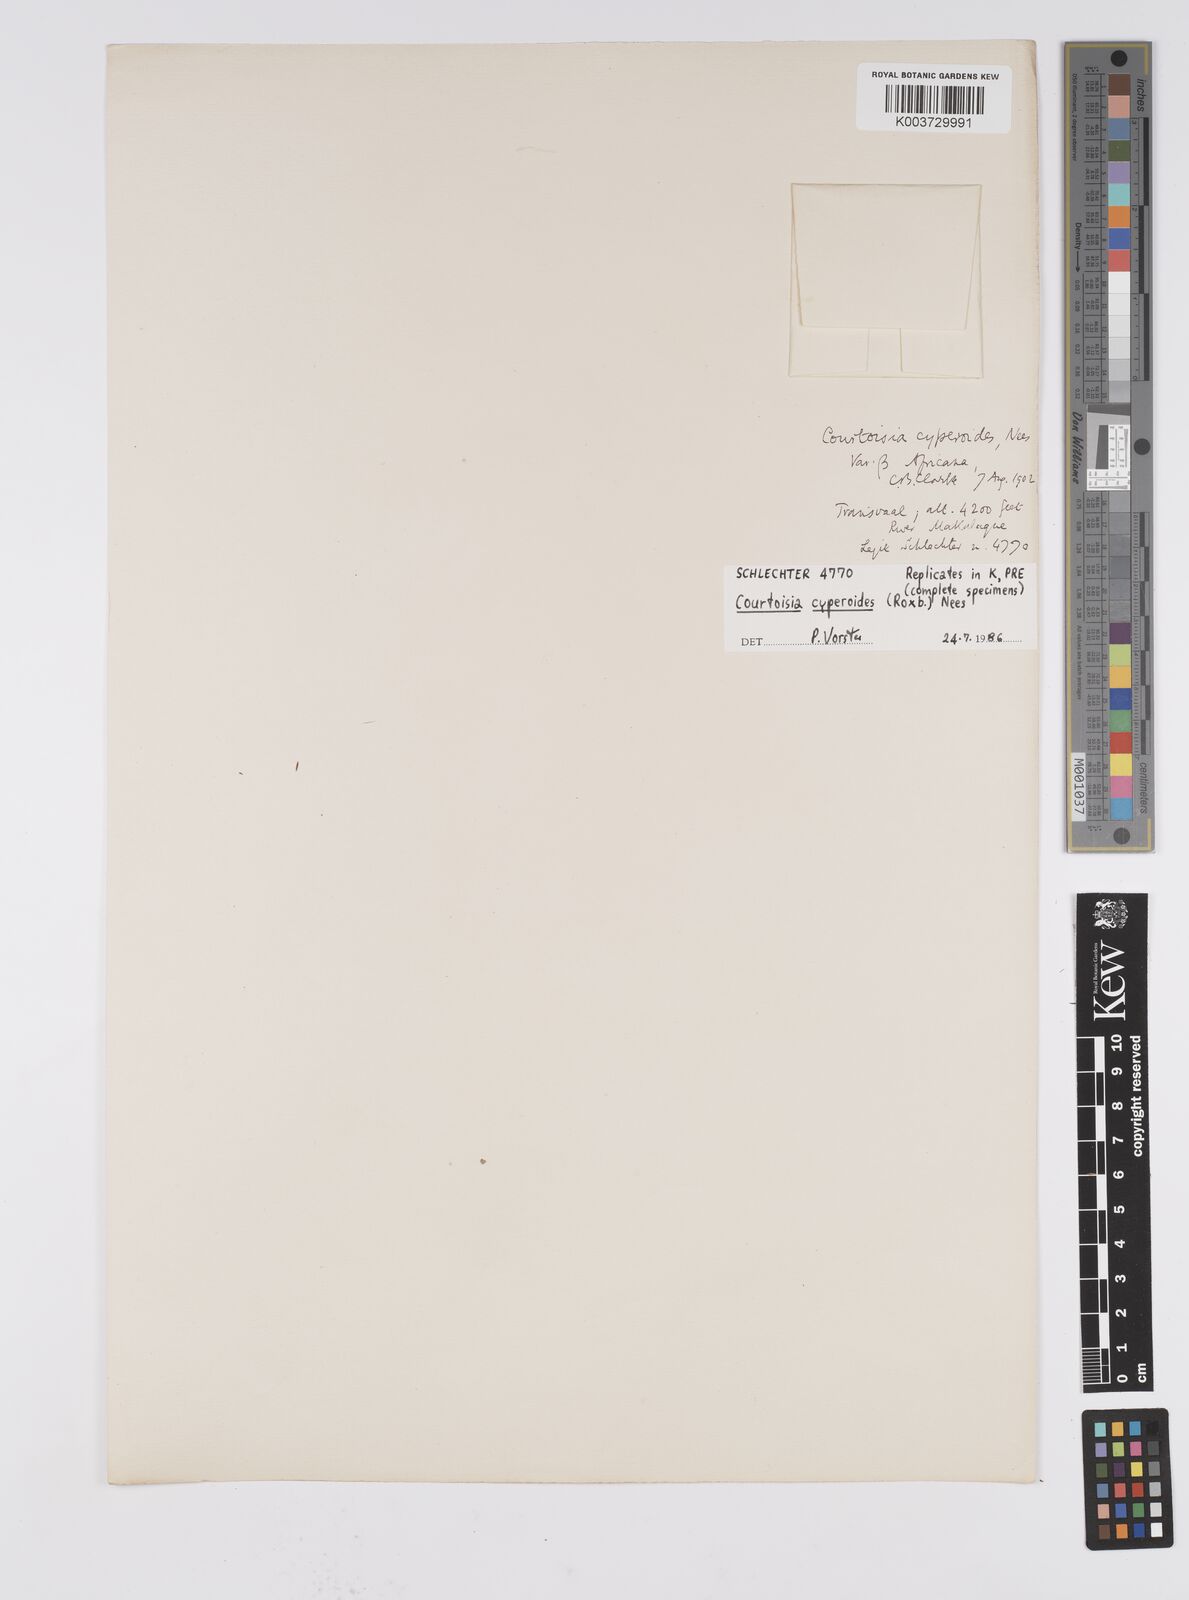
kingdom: Plantae
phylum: Tracheophyta
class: Liliopsida
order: Poales
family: Cyperaceae
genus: Cyperus
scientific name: Cyperus cyperoides
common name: Pacific island flat sedge
